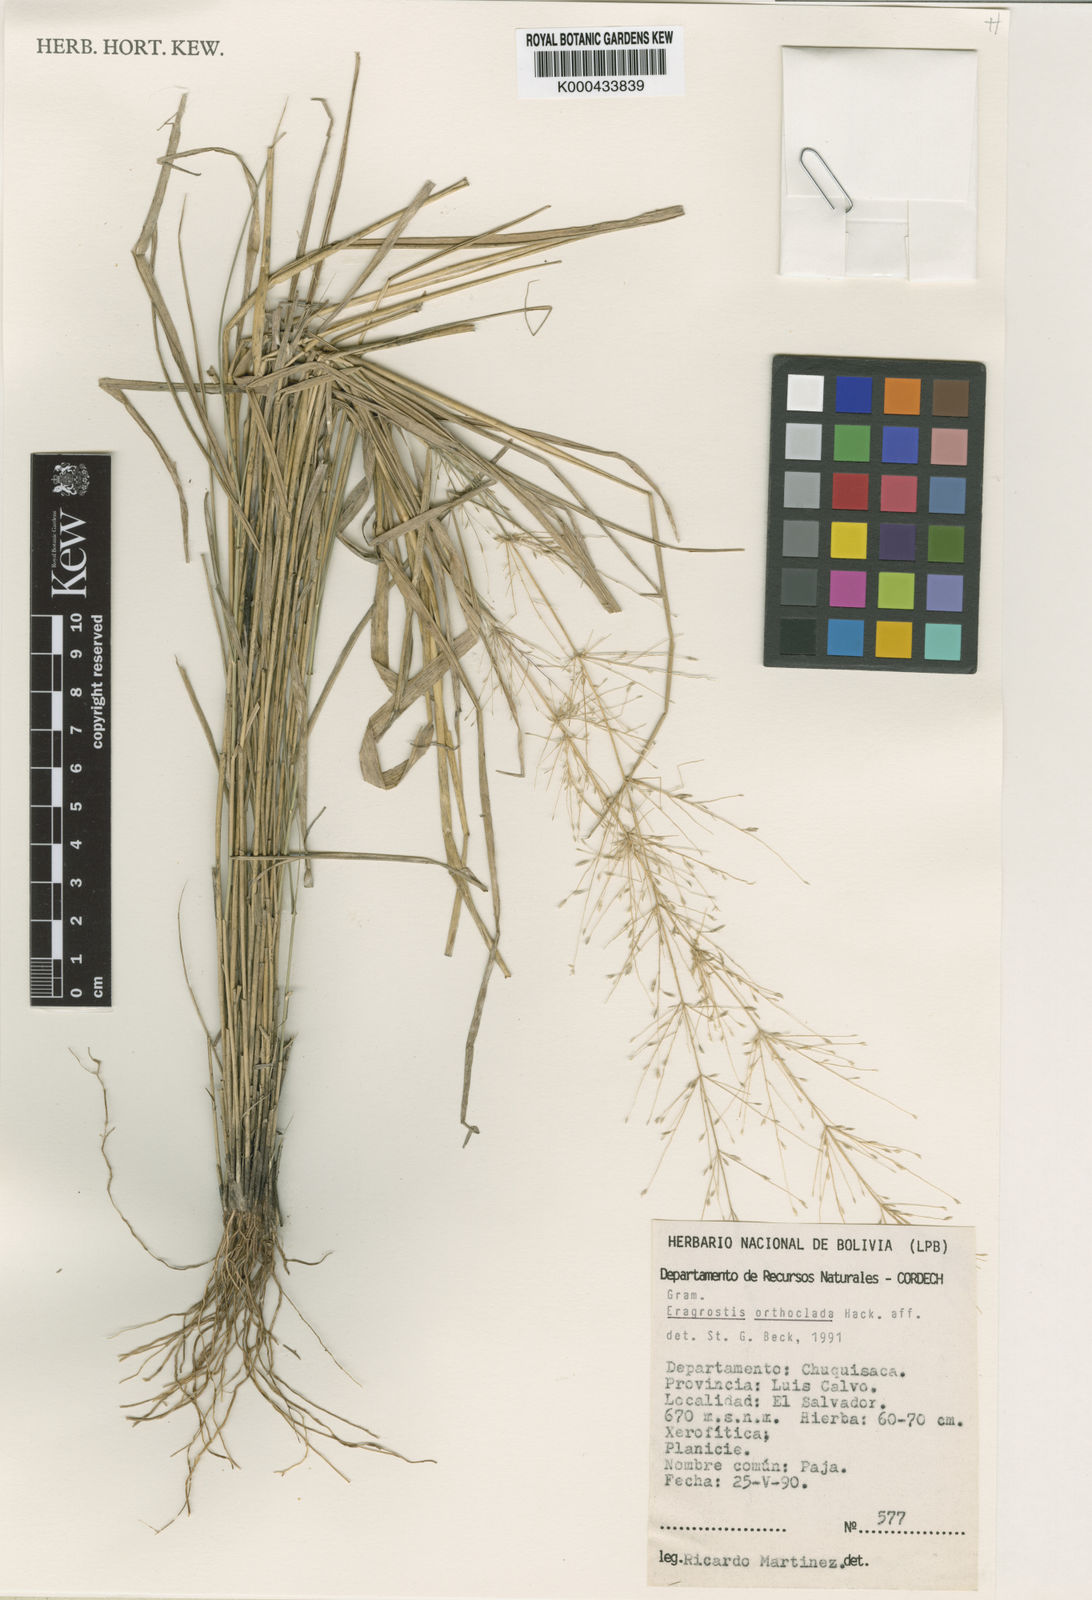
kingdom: Plantae
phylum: Tracheophyta
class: Liliopsida
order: Poales
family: Poaceae
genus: Eragrostis
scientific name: Eragrostis orthoclada
